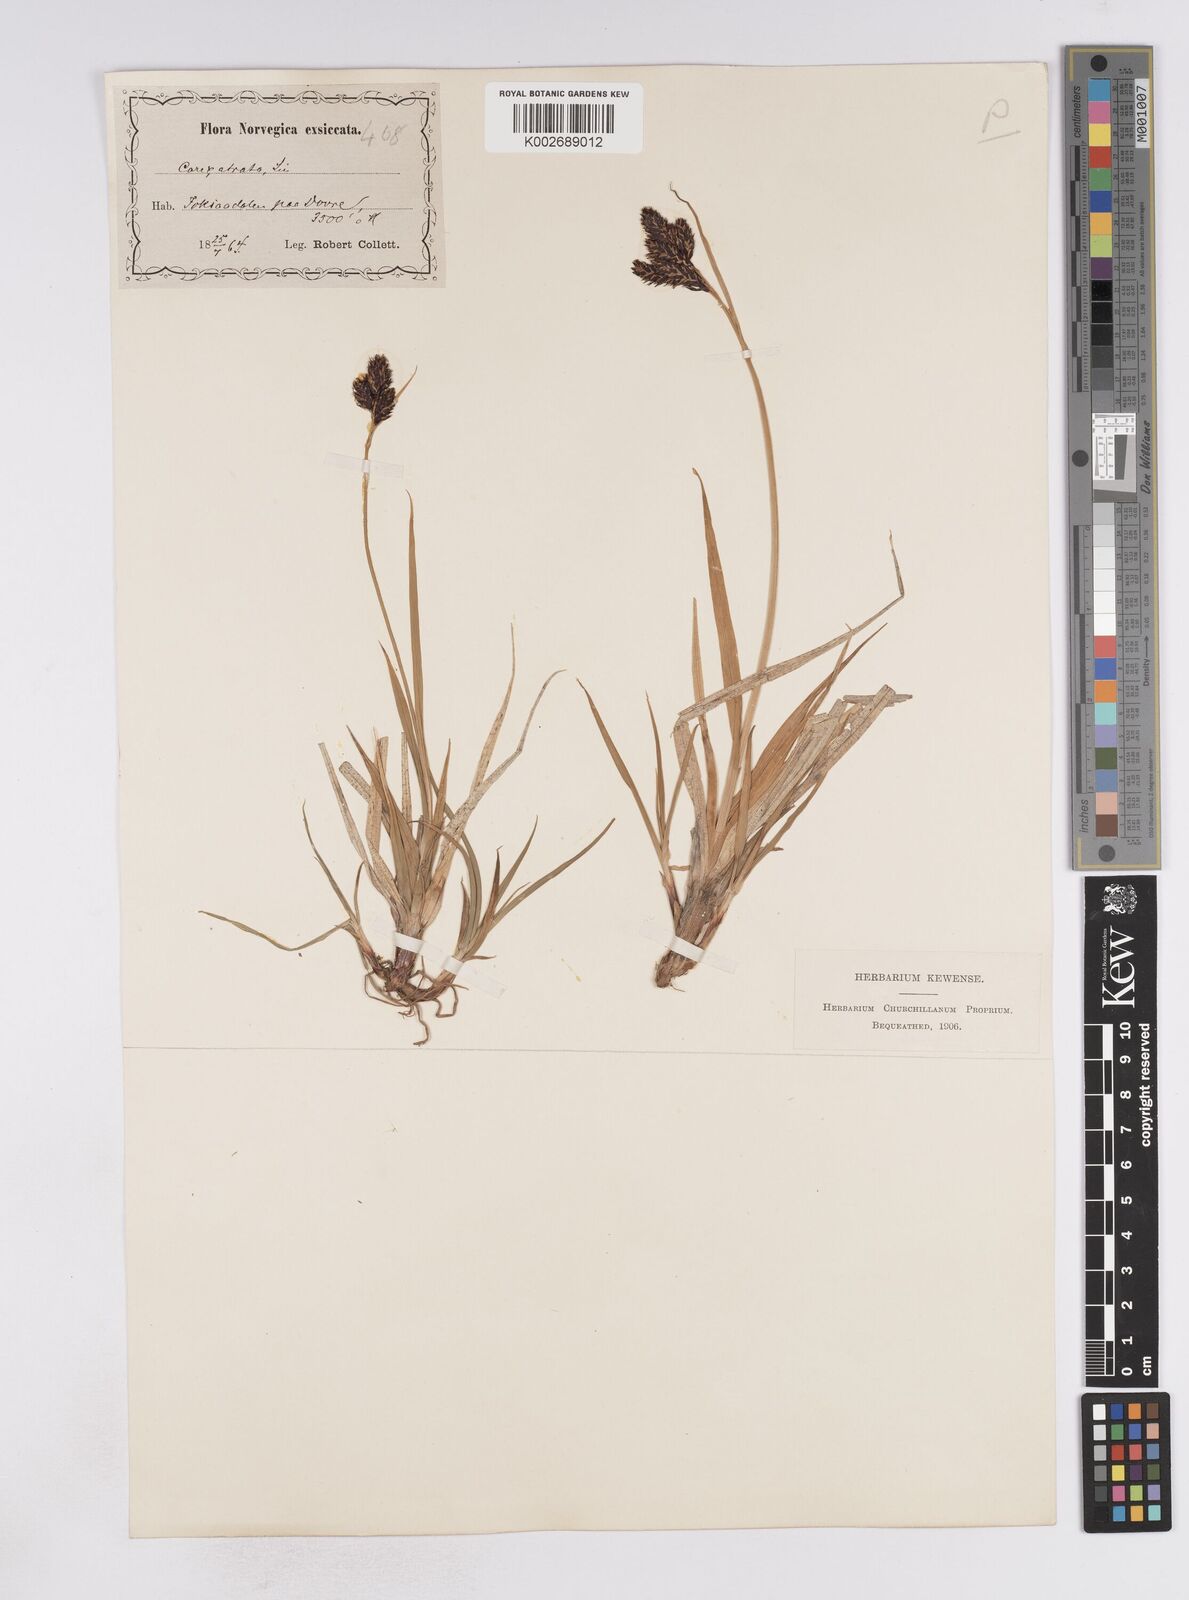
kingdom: Plantae
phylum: Tracheophyta
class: Liliopsida
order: Poales
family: Cyperaceae
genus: Carex
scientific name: Carex atrata
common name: Black alpine sedge
